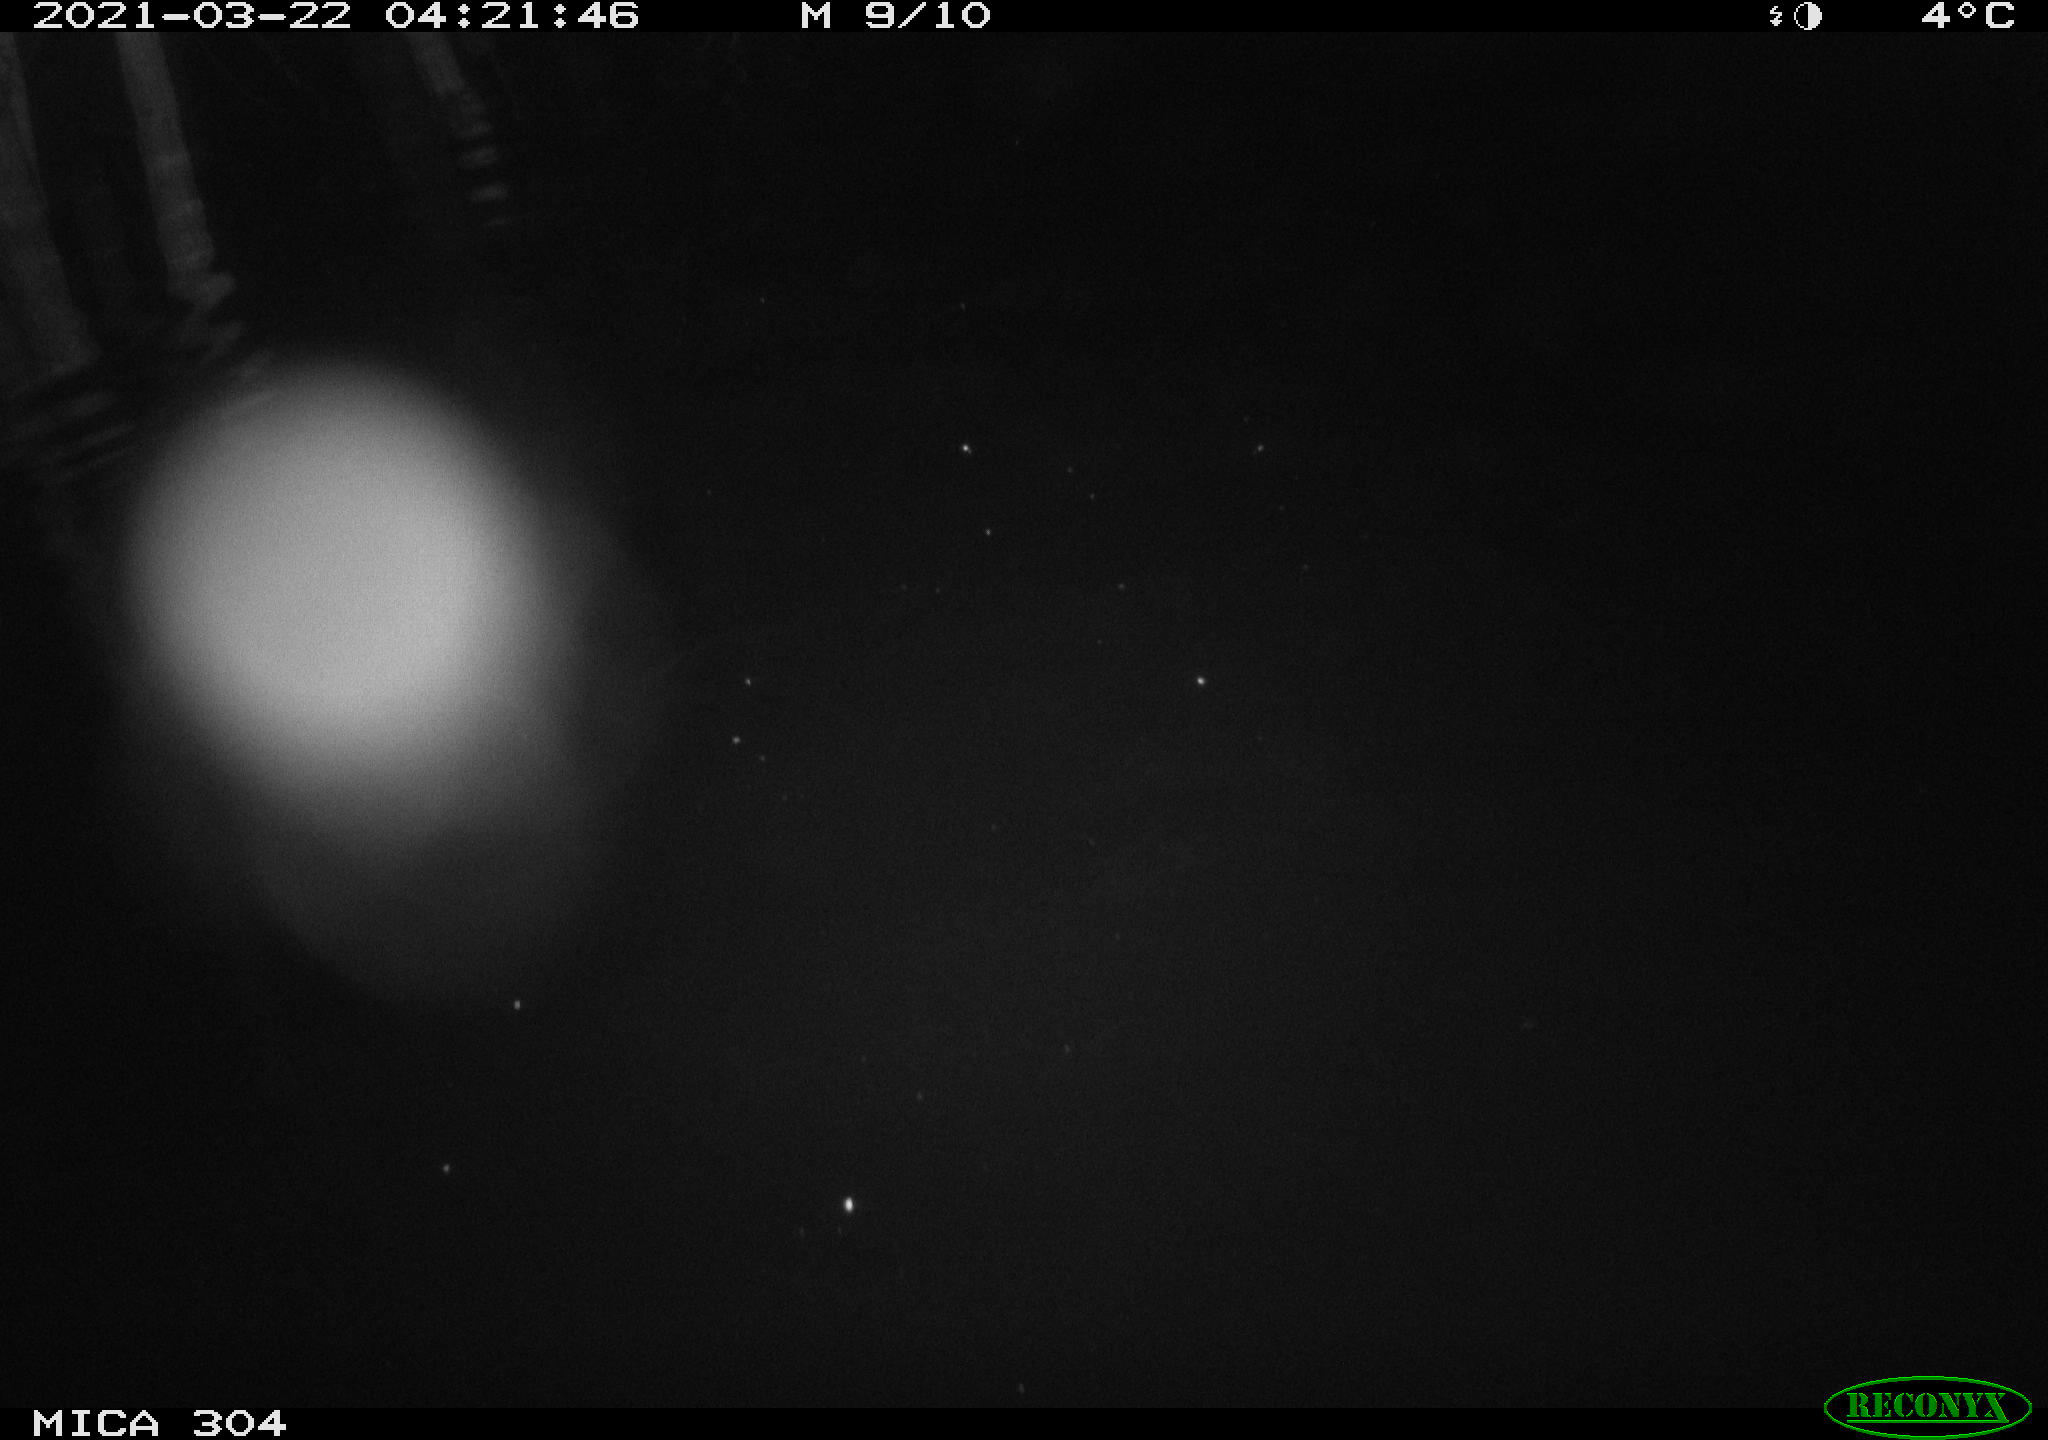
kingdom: Animalia
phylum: Chordata
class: Aves
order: Anseriformes
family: Anatidae
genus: Anas
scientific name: Anas platyrhynchos
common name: Mallard
